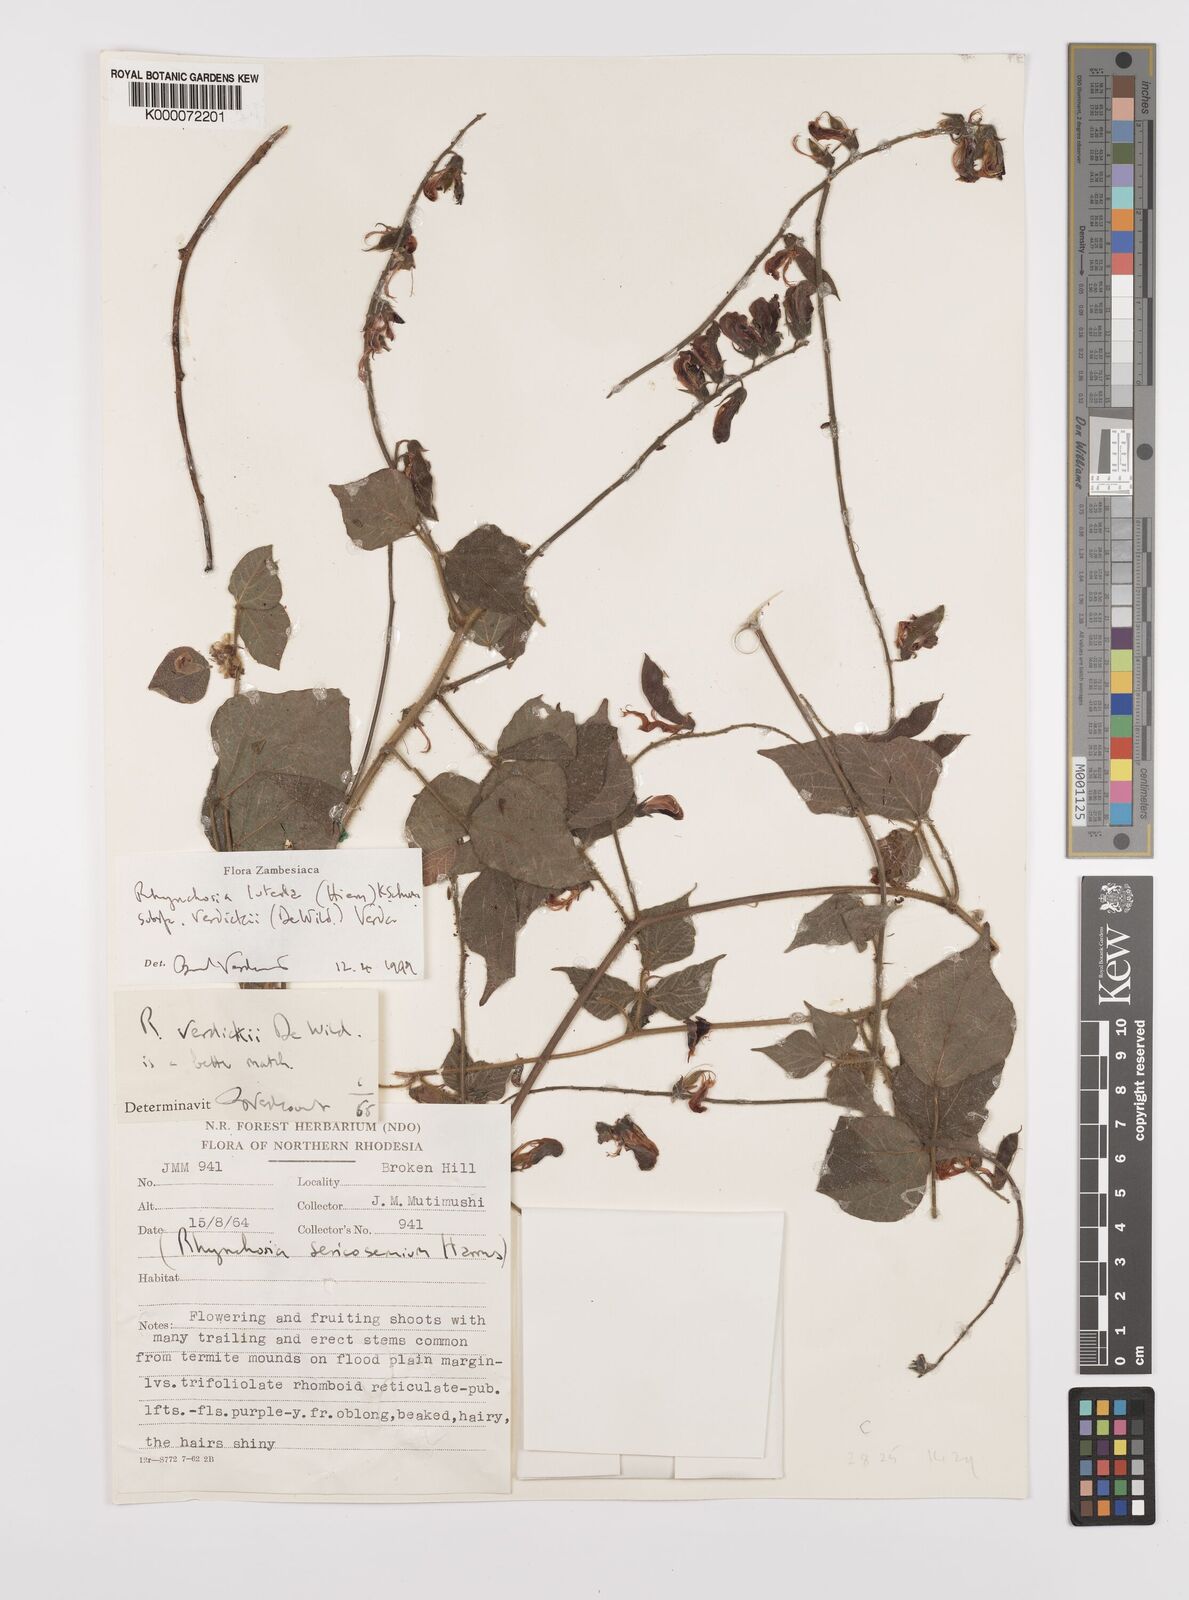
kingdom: Plantae
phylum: Tracheophyta
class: Magnoliopsida
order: Fabales
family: Fabaceae
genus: Rhynchosia
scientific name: Rhynchosia luteola
